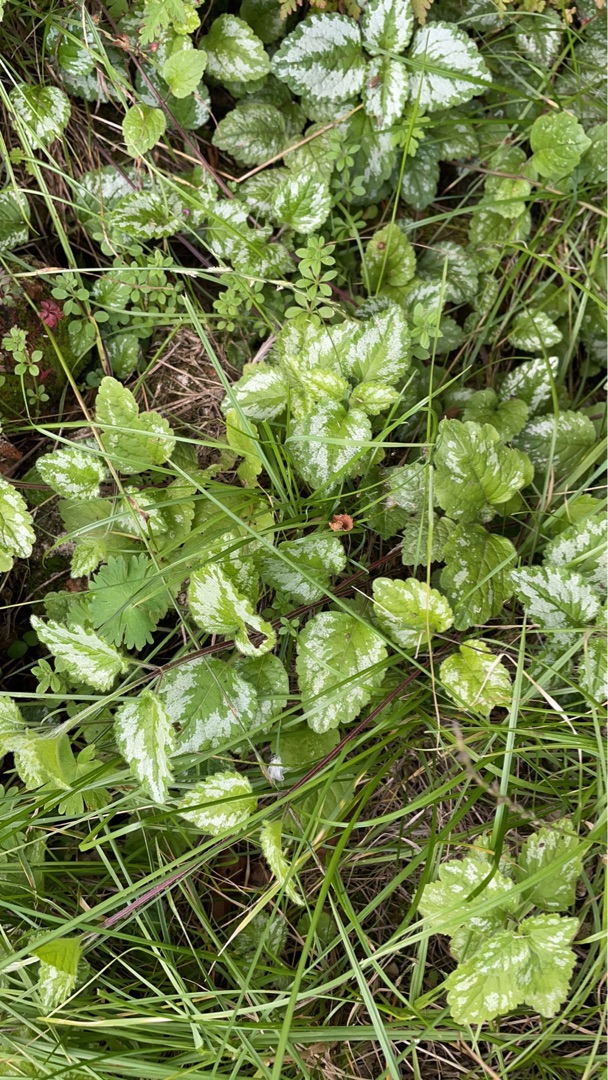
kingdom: Plantae
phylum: Tracheophyta
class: Magnoliopsida
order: Lamiales
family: Lamiaceae
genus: Lamium
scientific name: Lamium galeobdolon
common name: Have-guldnælde
